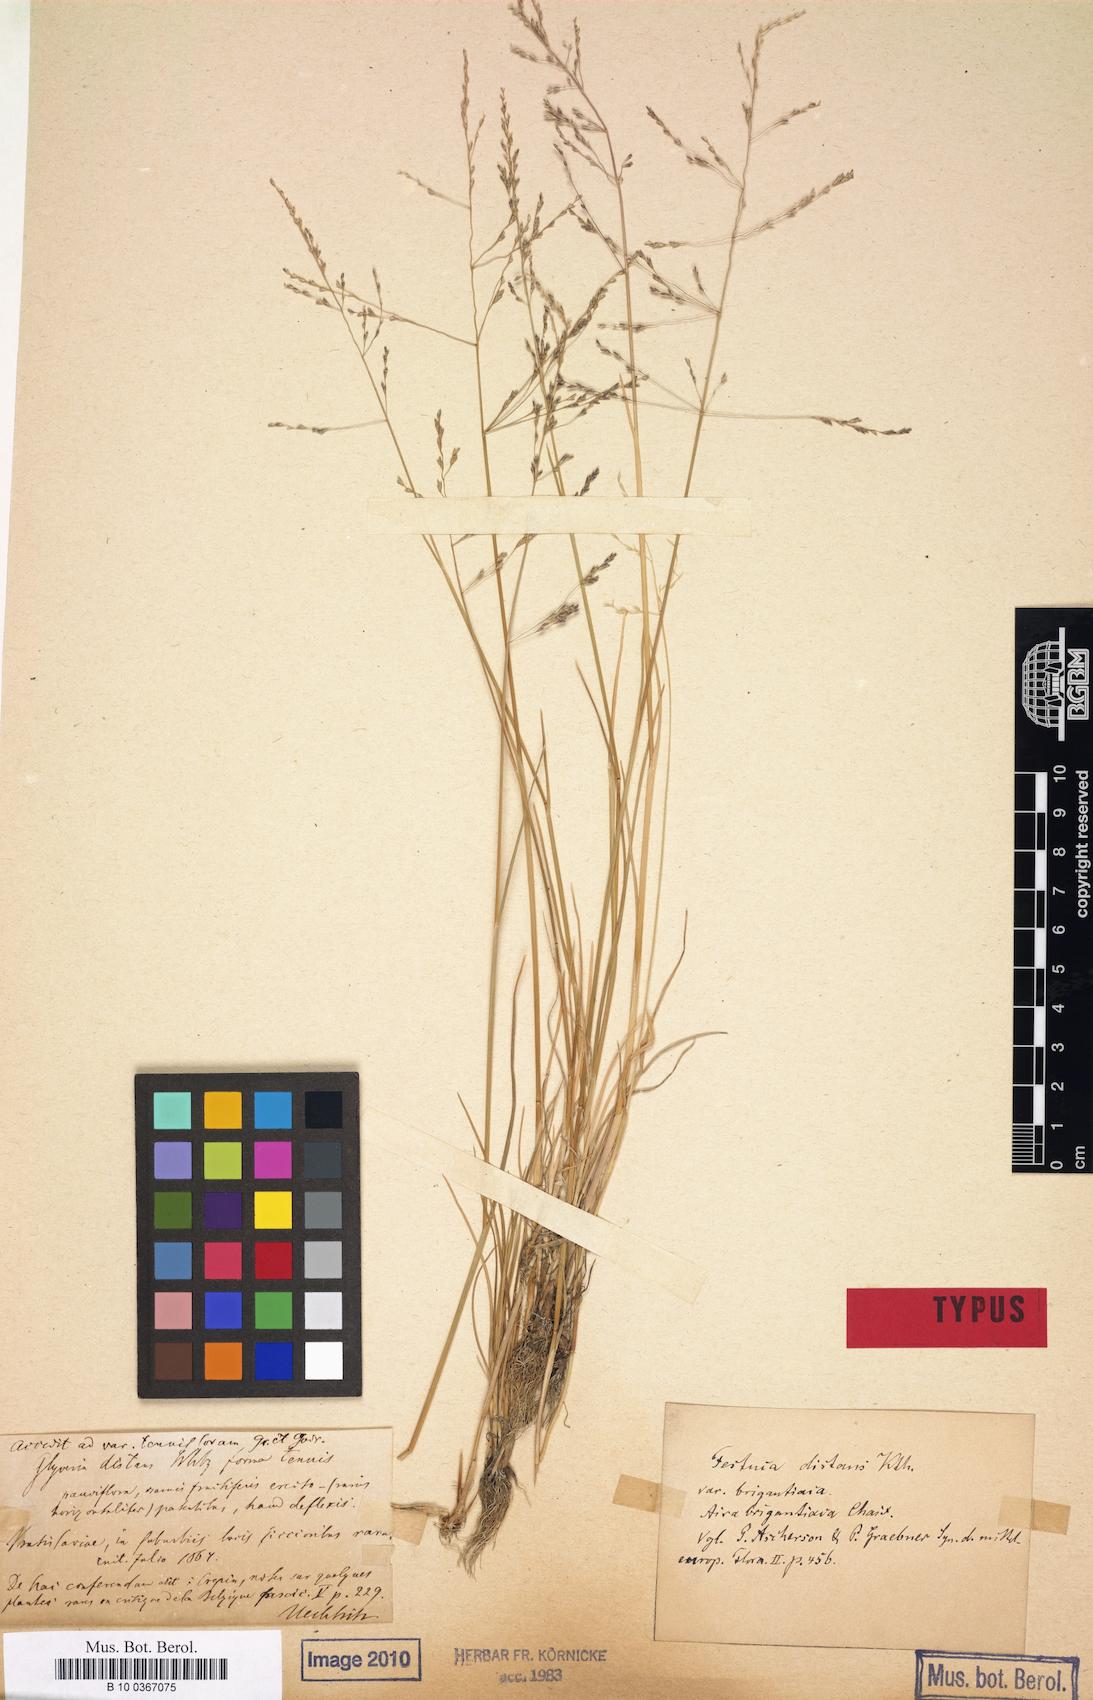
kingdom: Plantae
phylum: Tracheophyta
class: Liliopsida
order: Poales
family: Poaceae
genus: Puccinellia
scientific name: Puccinellia distans
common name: Weeping alkaligrass
